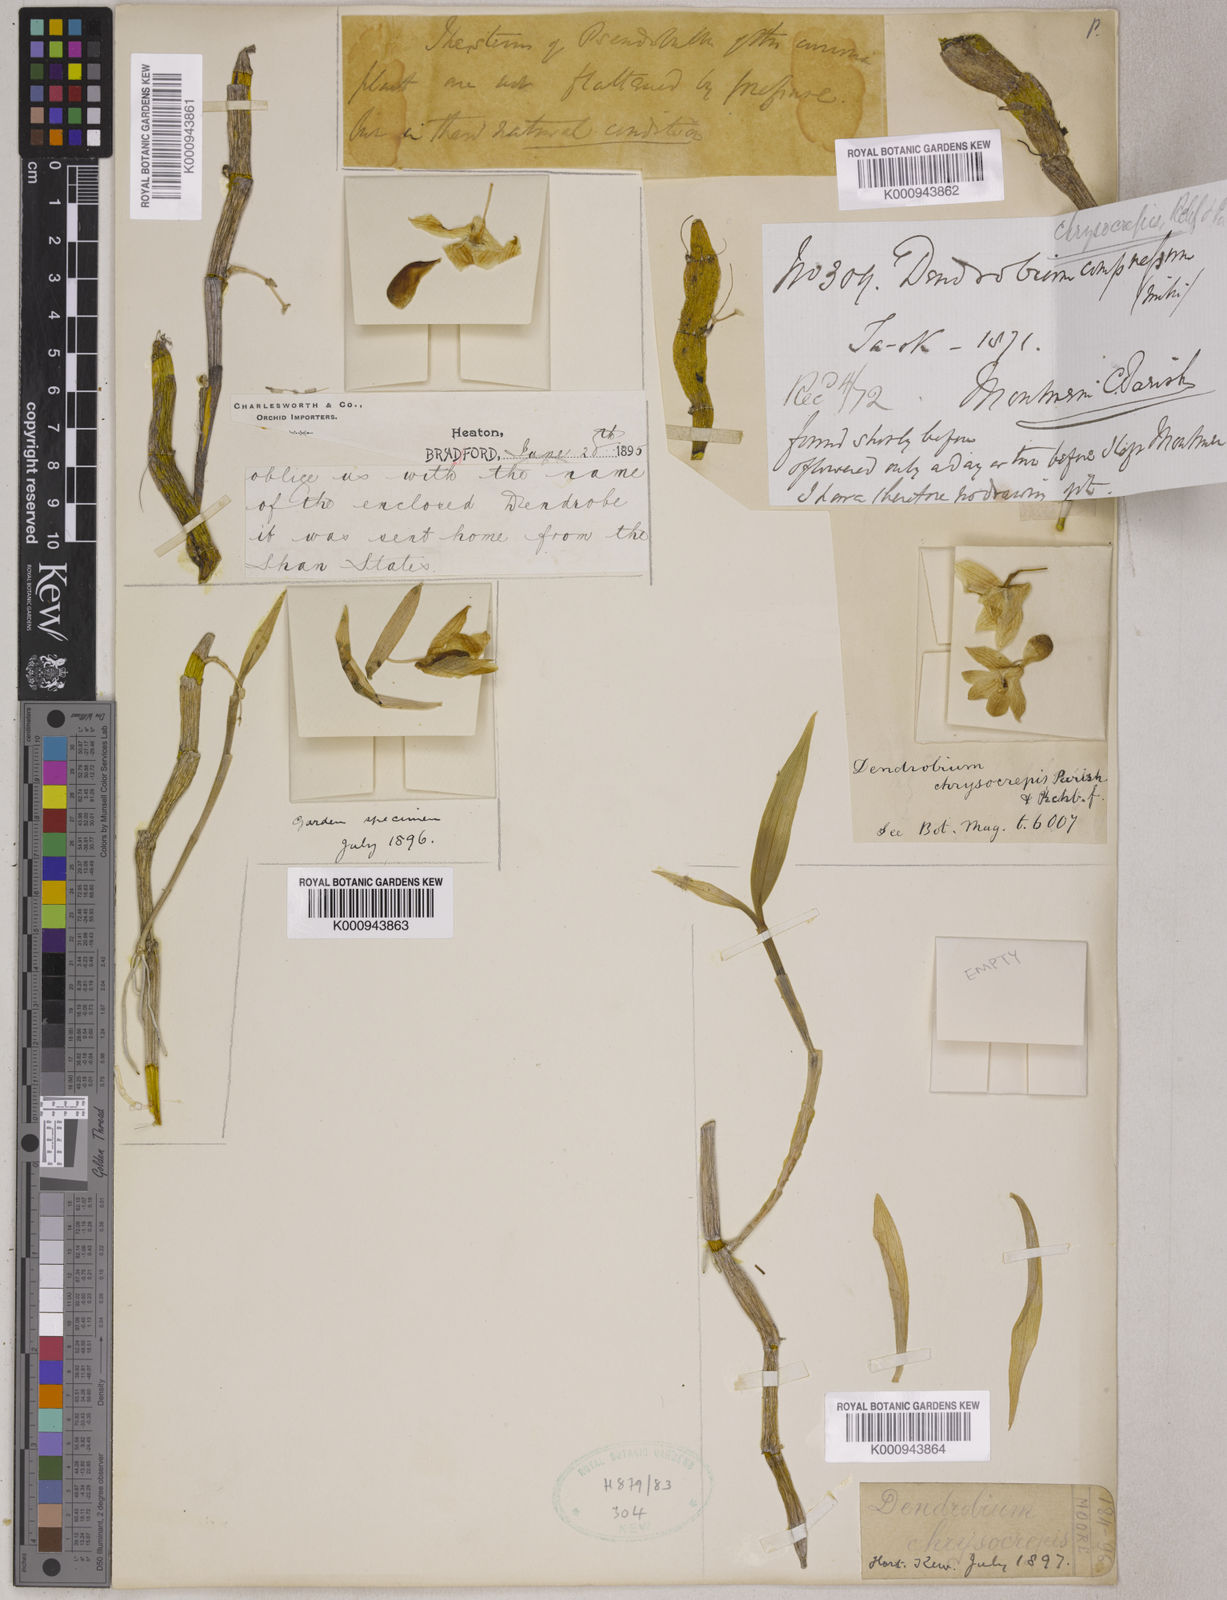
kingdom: Plantae
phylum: Tracheophyta
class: Liliopsida
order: Asparagales
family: Orchidaceae
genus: Dendrobium
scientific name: Dendrobium chrysocrepis
